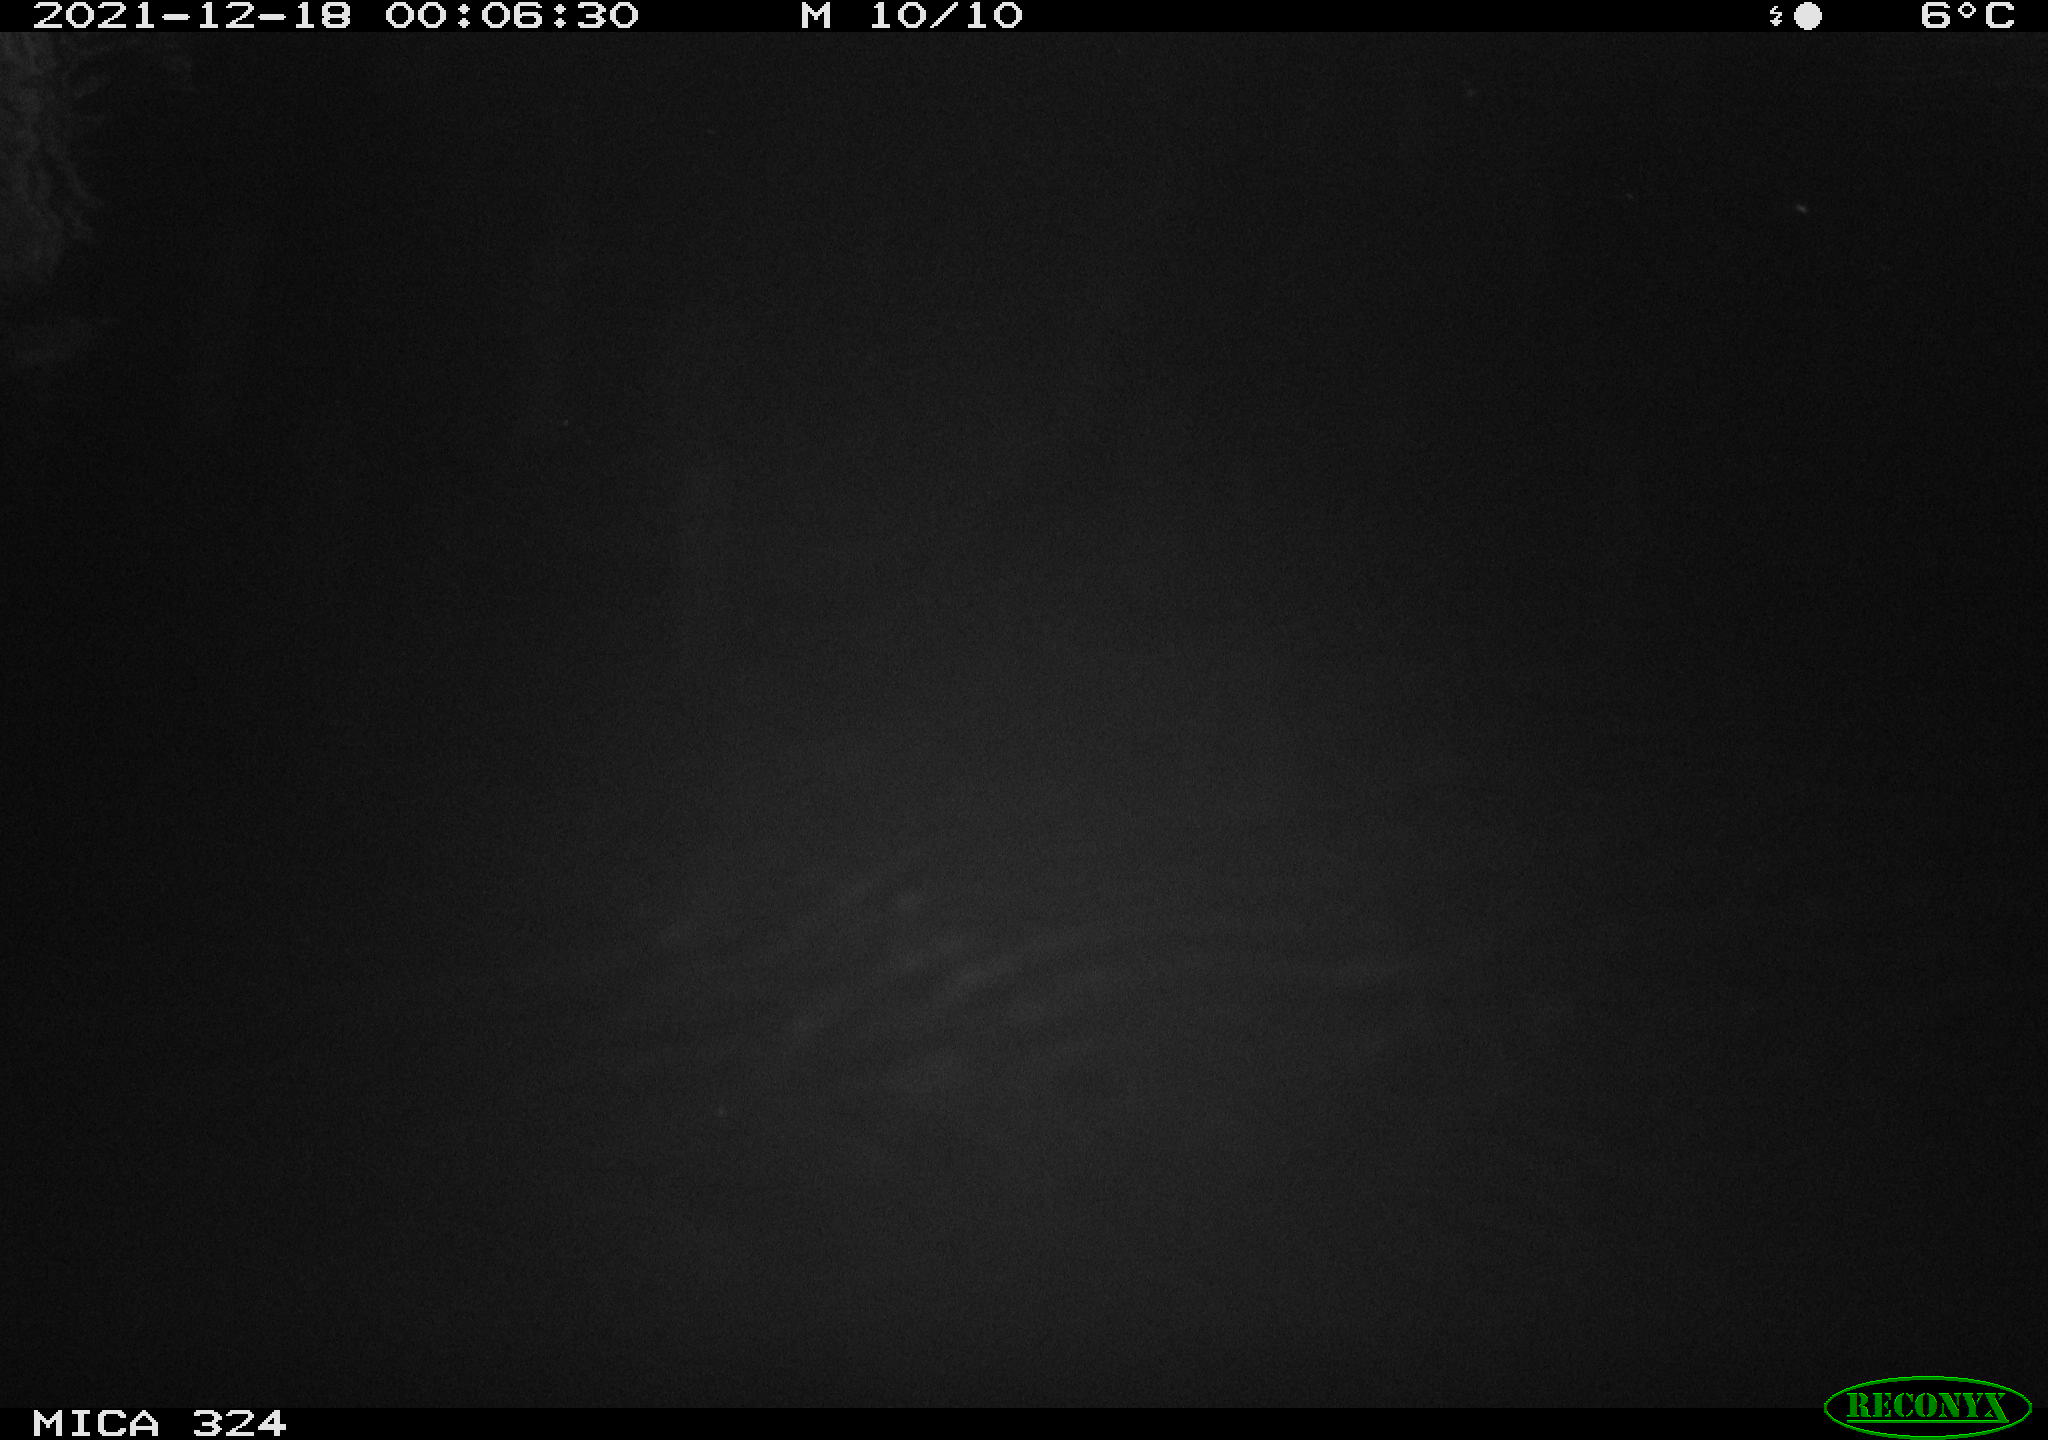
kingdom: Animalia
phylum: Chordata
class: Mammalia
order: Rodentia
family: Cricetidae
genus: Ondatra
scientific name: Ondatra zibethicus
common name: Muskrat
